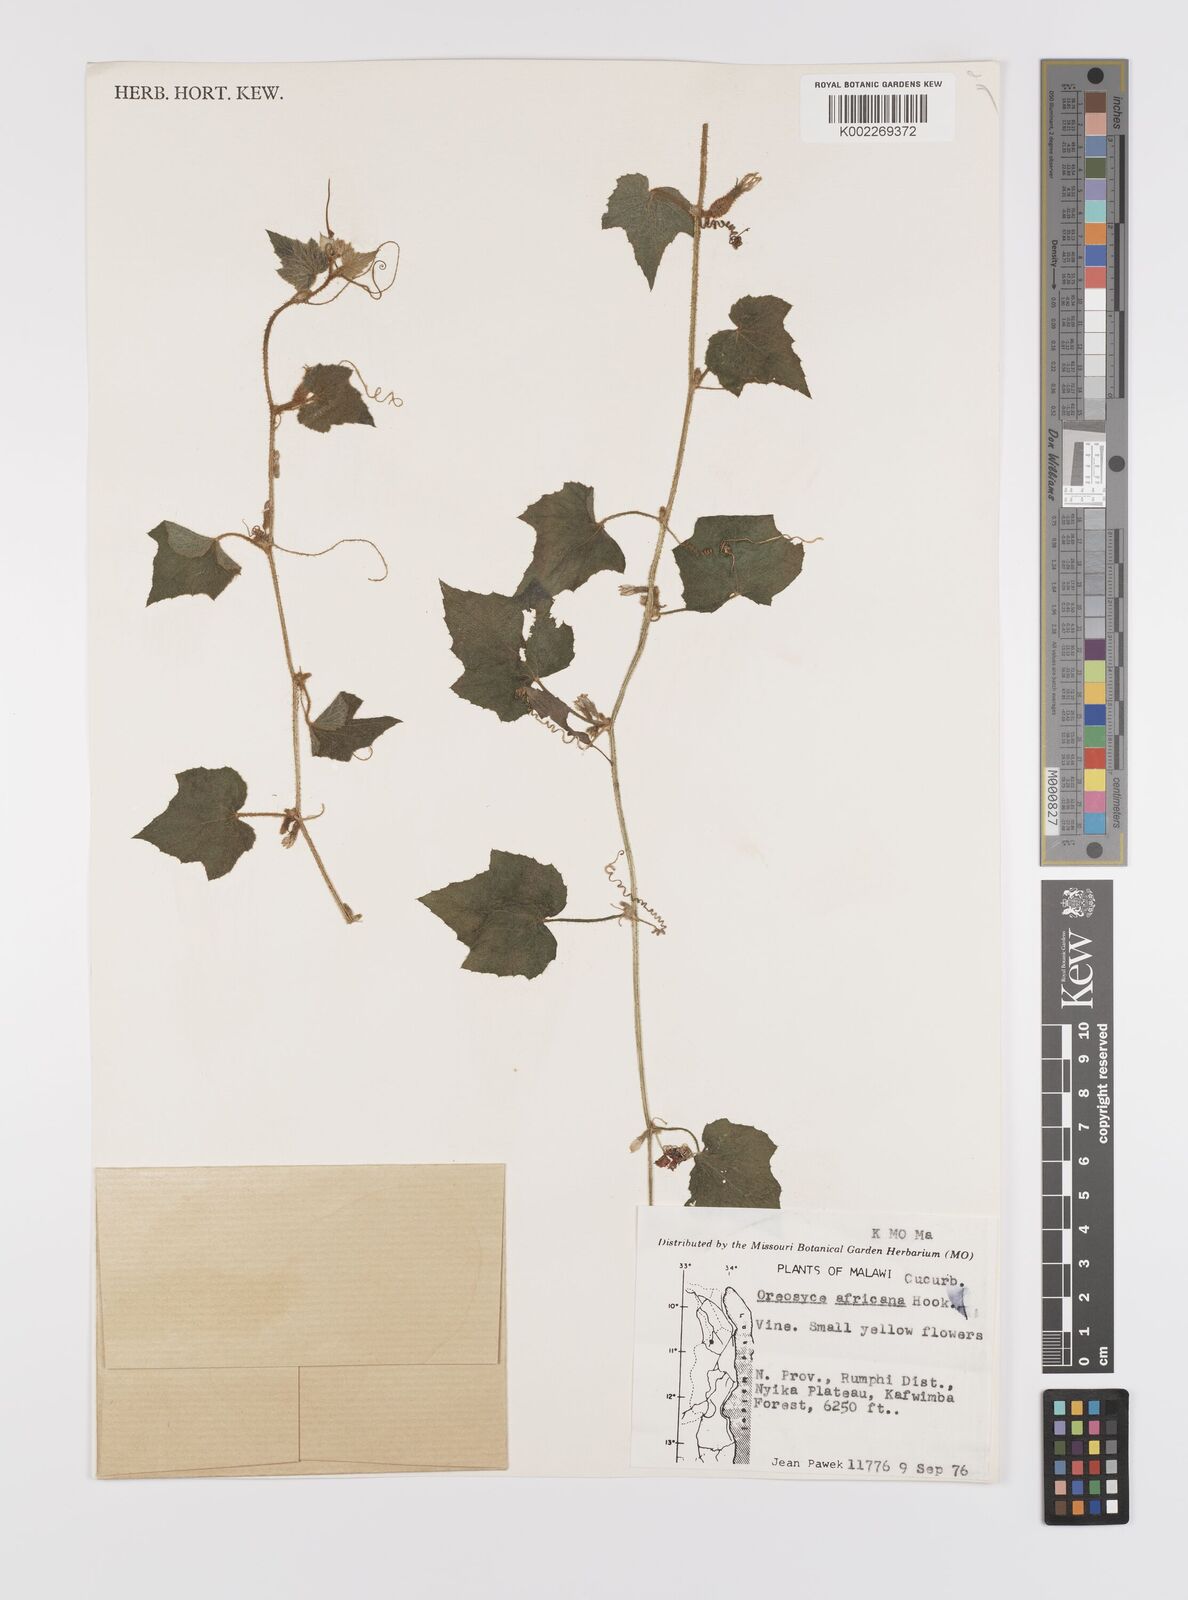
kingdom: Plantae
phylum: Tracheophyta
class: Magnoliopsida
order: Cucurbitales
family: Cucurbitaceae
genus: Cucumis
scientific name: Cucumis oreosyce
